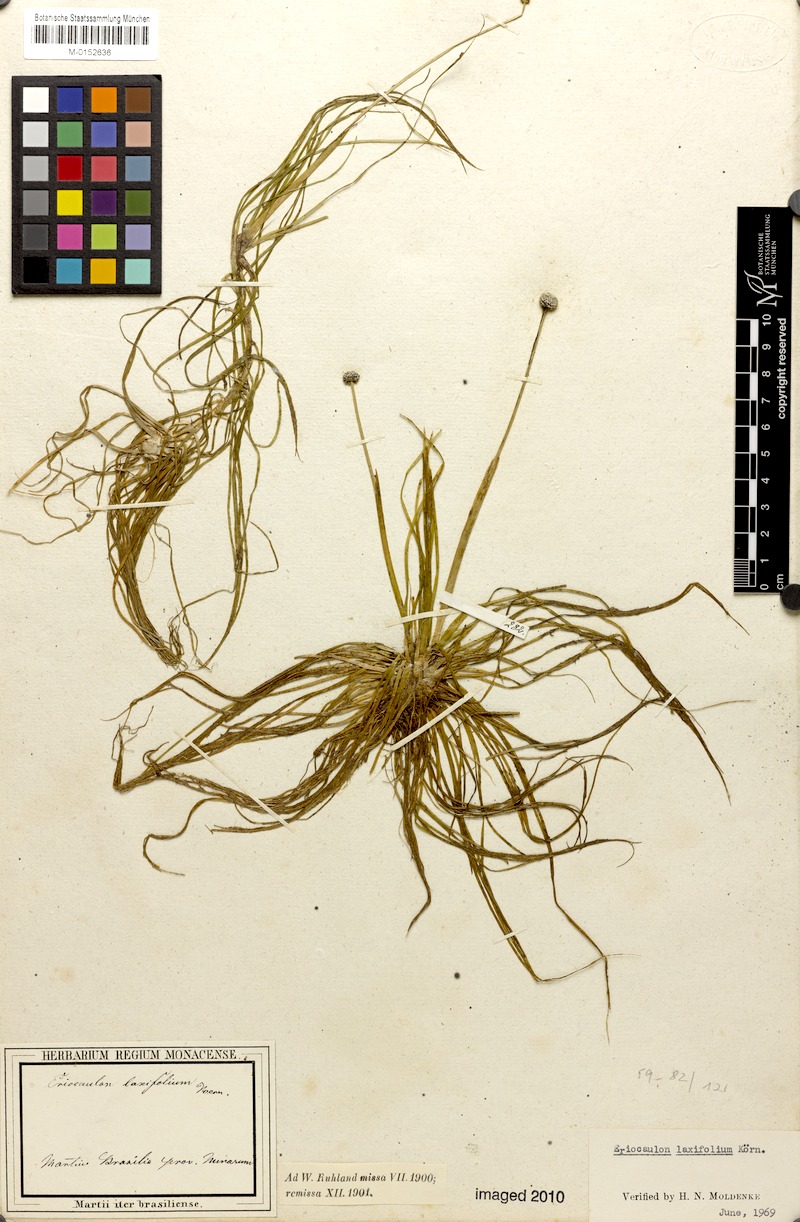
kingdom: Plantae
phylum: Tracheophyta
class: Liliopsida
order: Poales
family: Eriocaulaceae
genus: Eriocaulon
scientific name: Eriocaulon laxifolium
